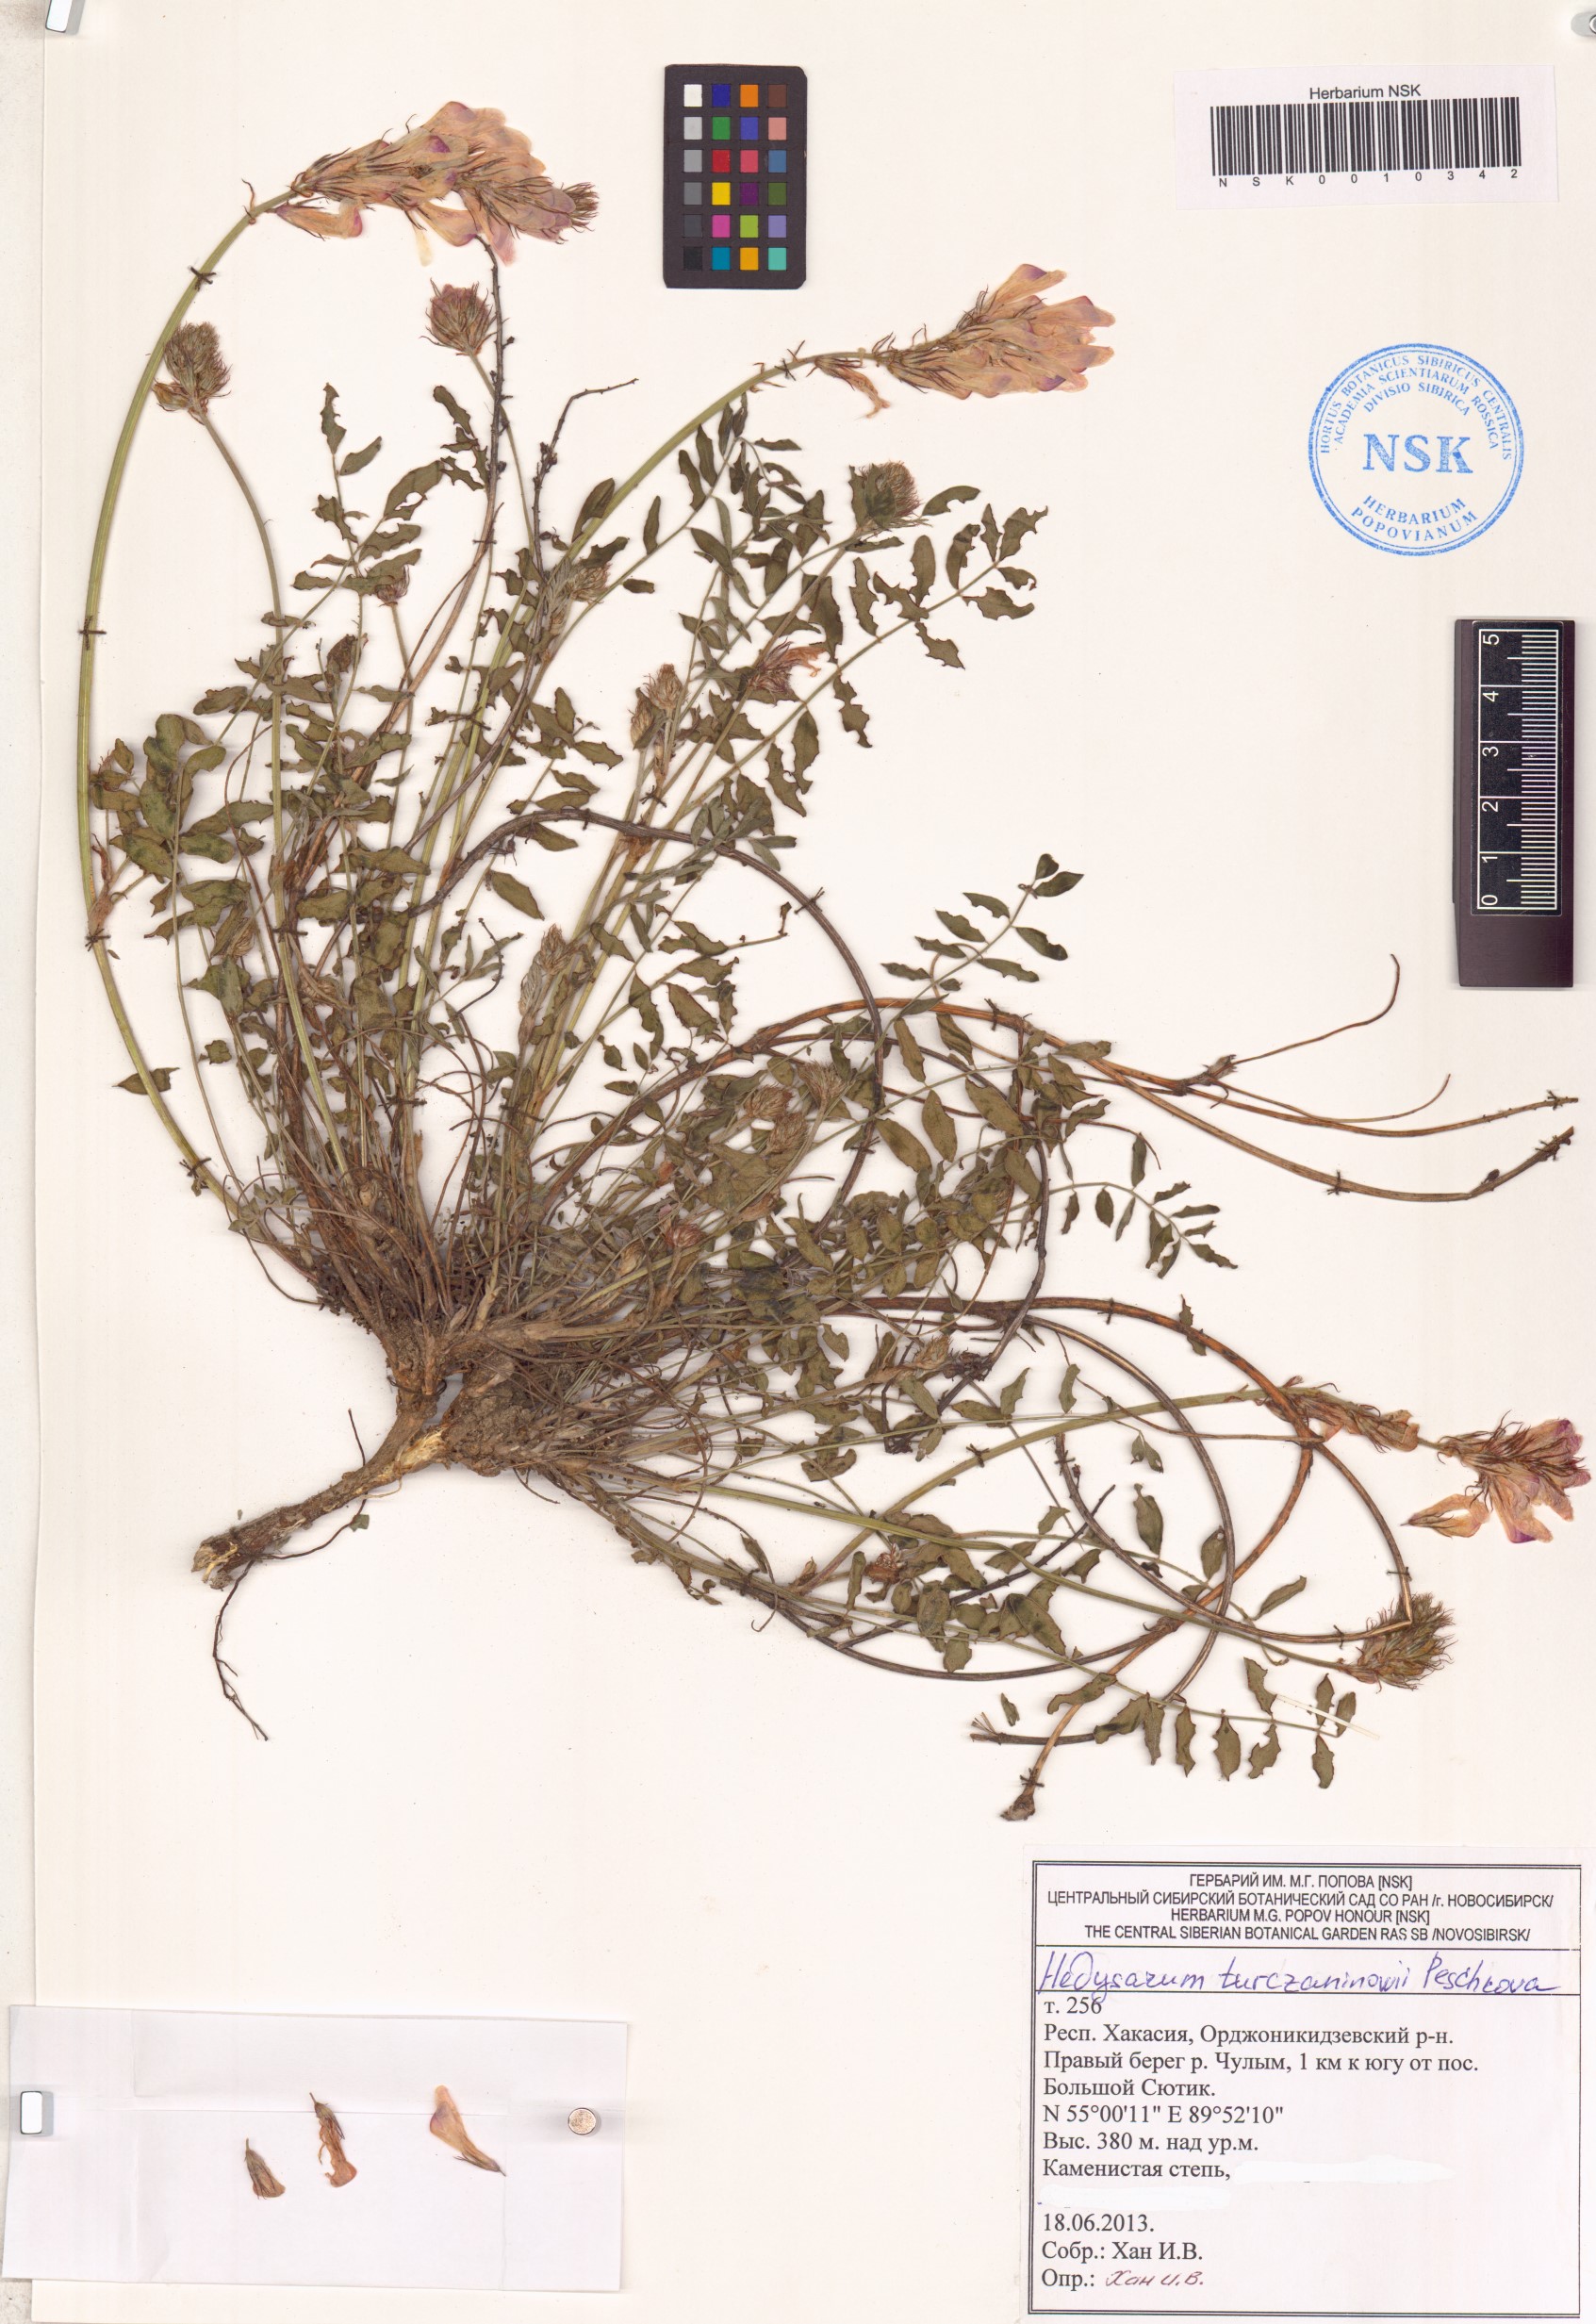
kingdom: Plantae
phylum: Tracheophyta
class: Magnoliopsida
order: Fabales
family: Fabaceae
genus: Hedysarum
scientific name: Hedysarum turczaninovii
